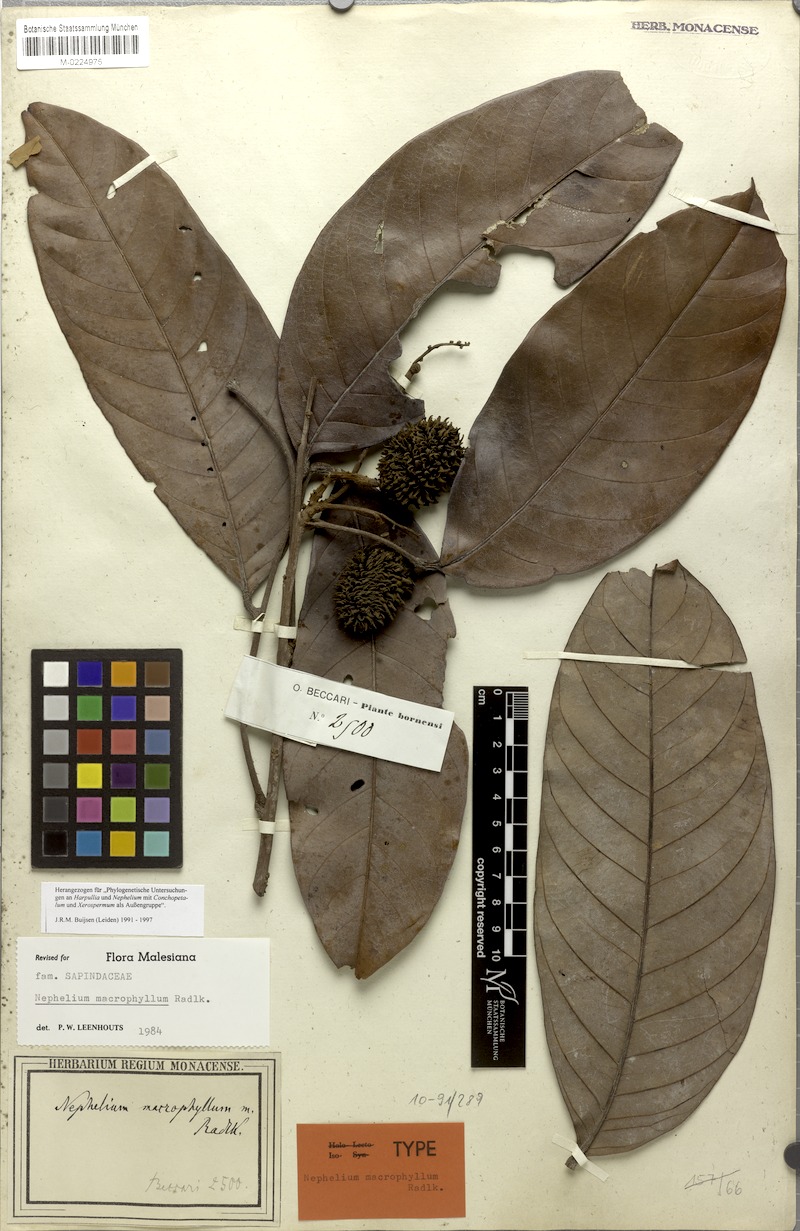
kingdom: Plantae
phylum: Tracheophyta
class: Magnoliopsida
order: Sapindales
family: Sapindaceae
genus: Nephelium
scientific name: Nephelium macrophyllum
